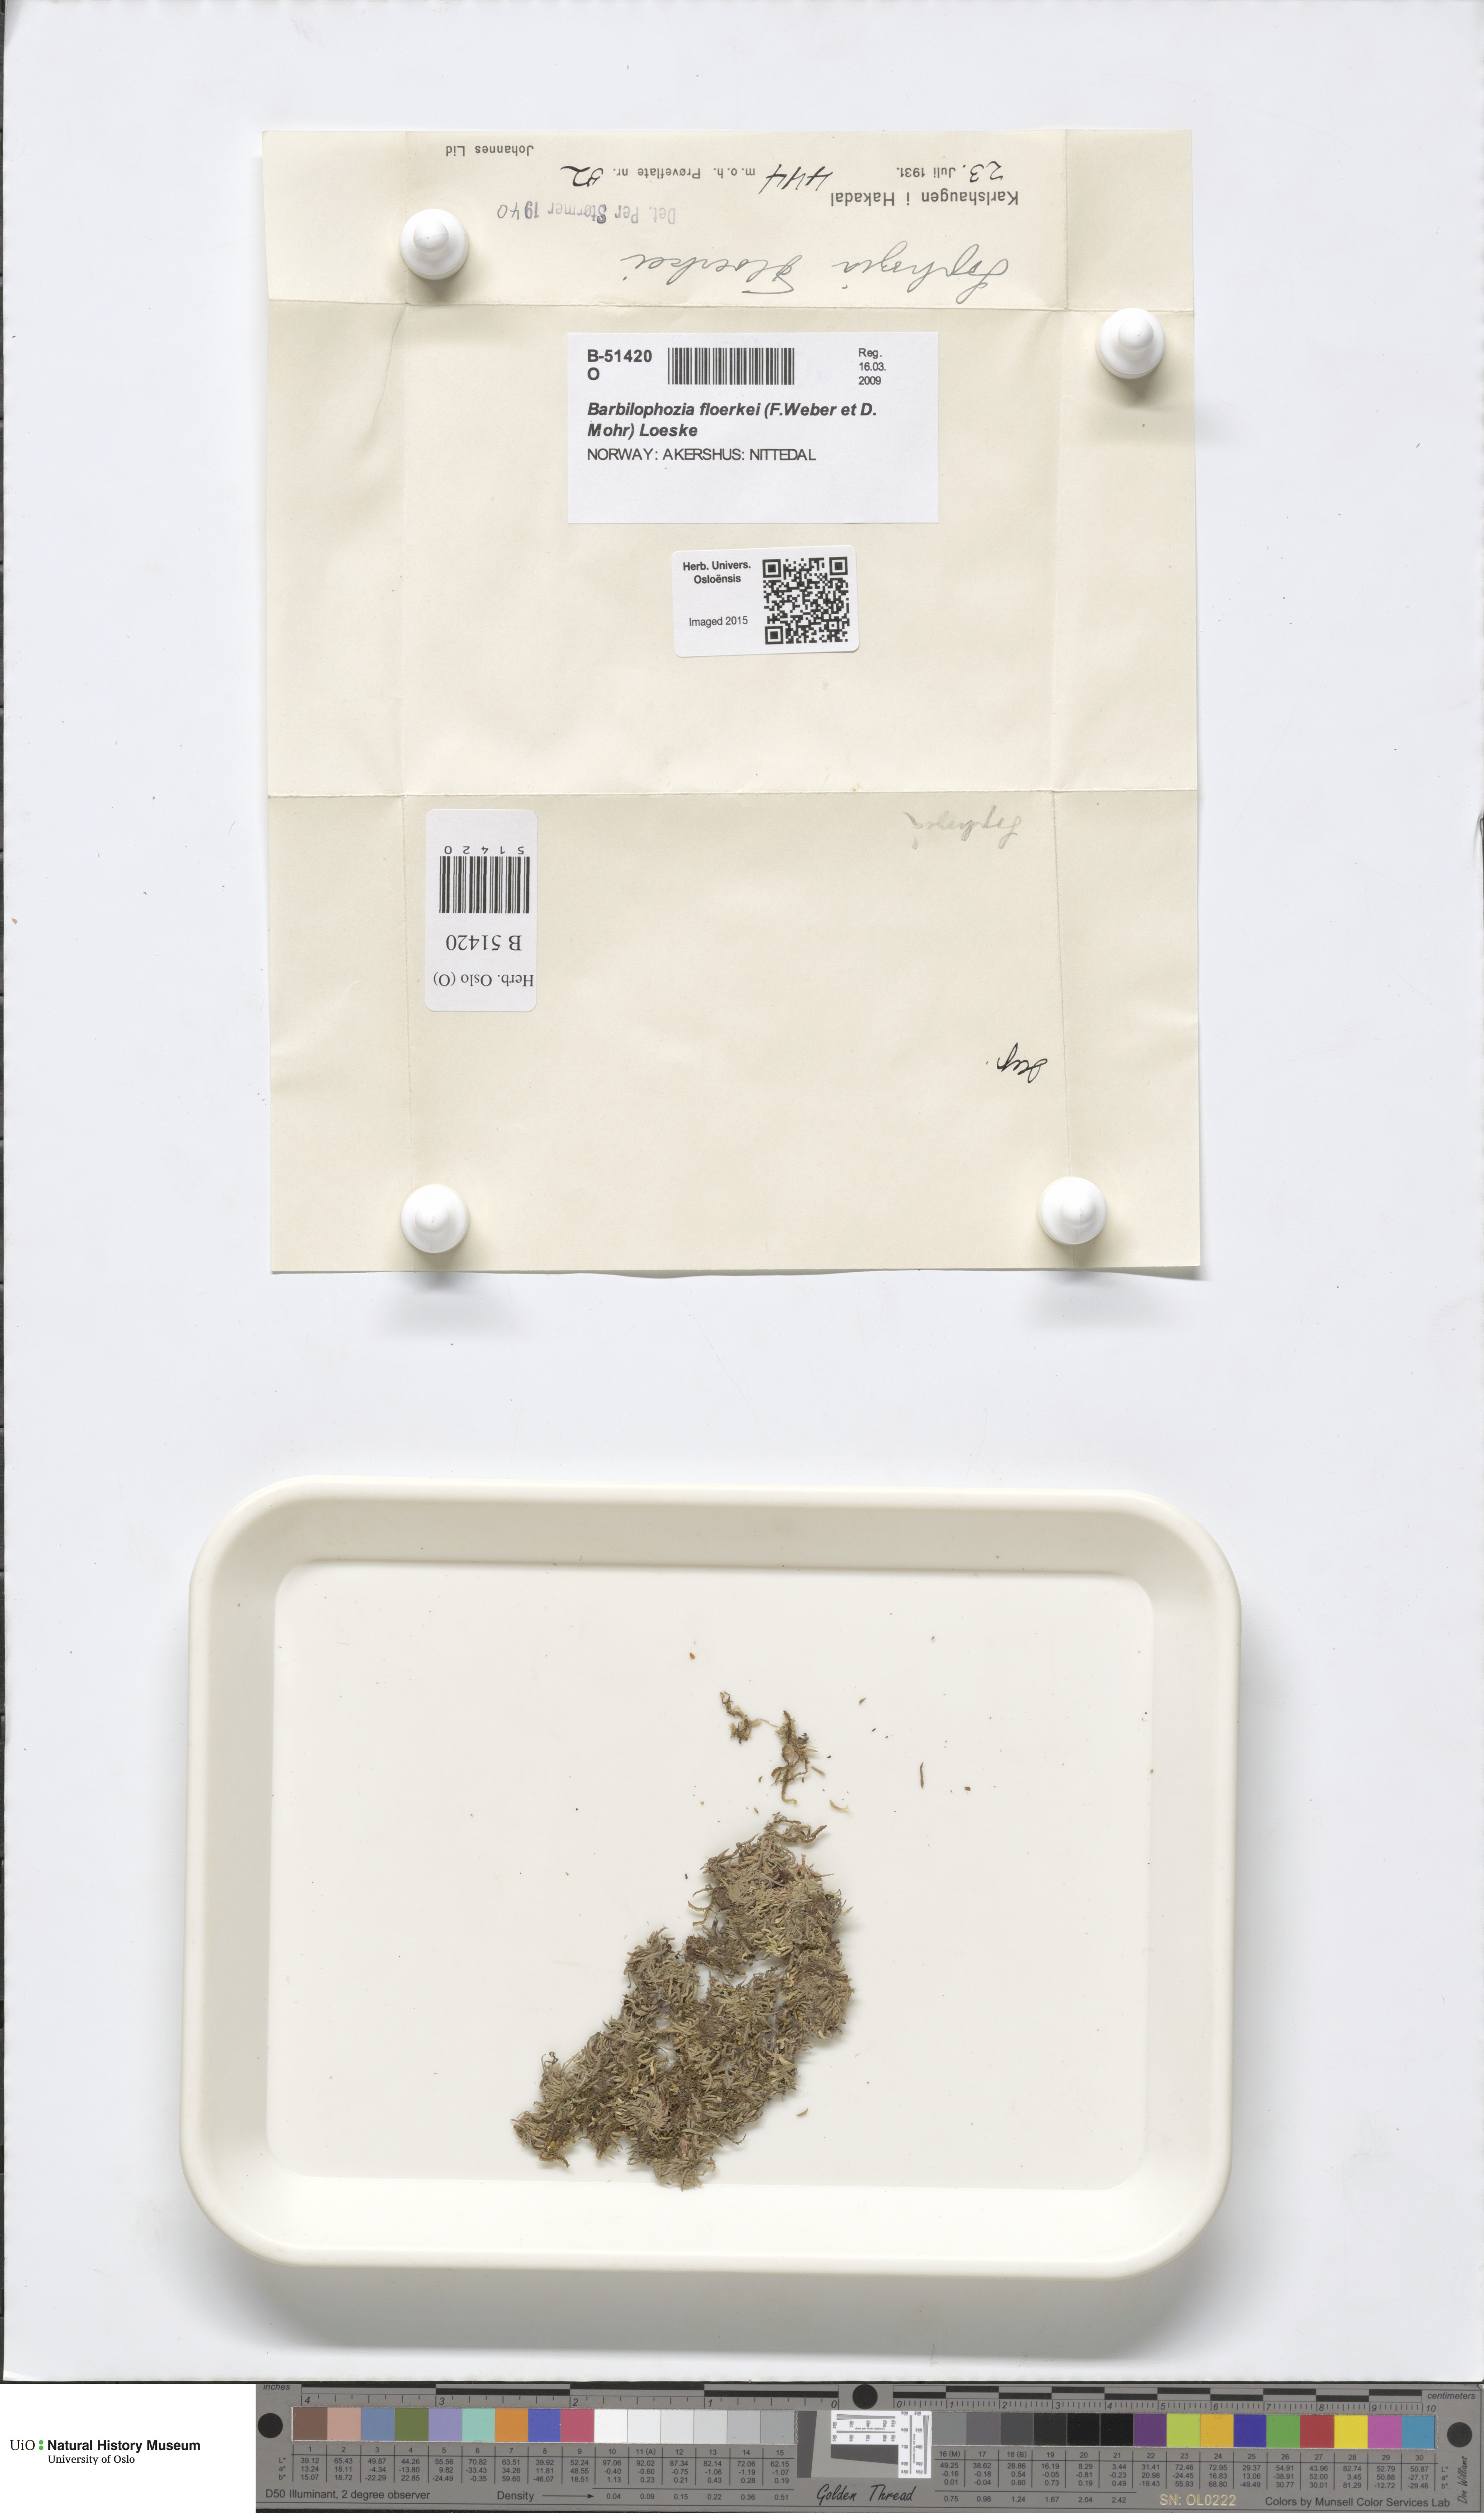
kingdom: Plantae
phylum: Marchantiophyta
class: Jungermanniopsida
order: Jungermanniales
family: Anastrophyllaceae
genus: Neoorthocaulis
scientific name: Neoorthocaulis floerkei
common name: Floerke's barbilophozia
